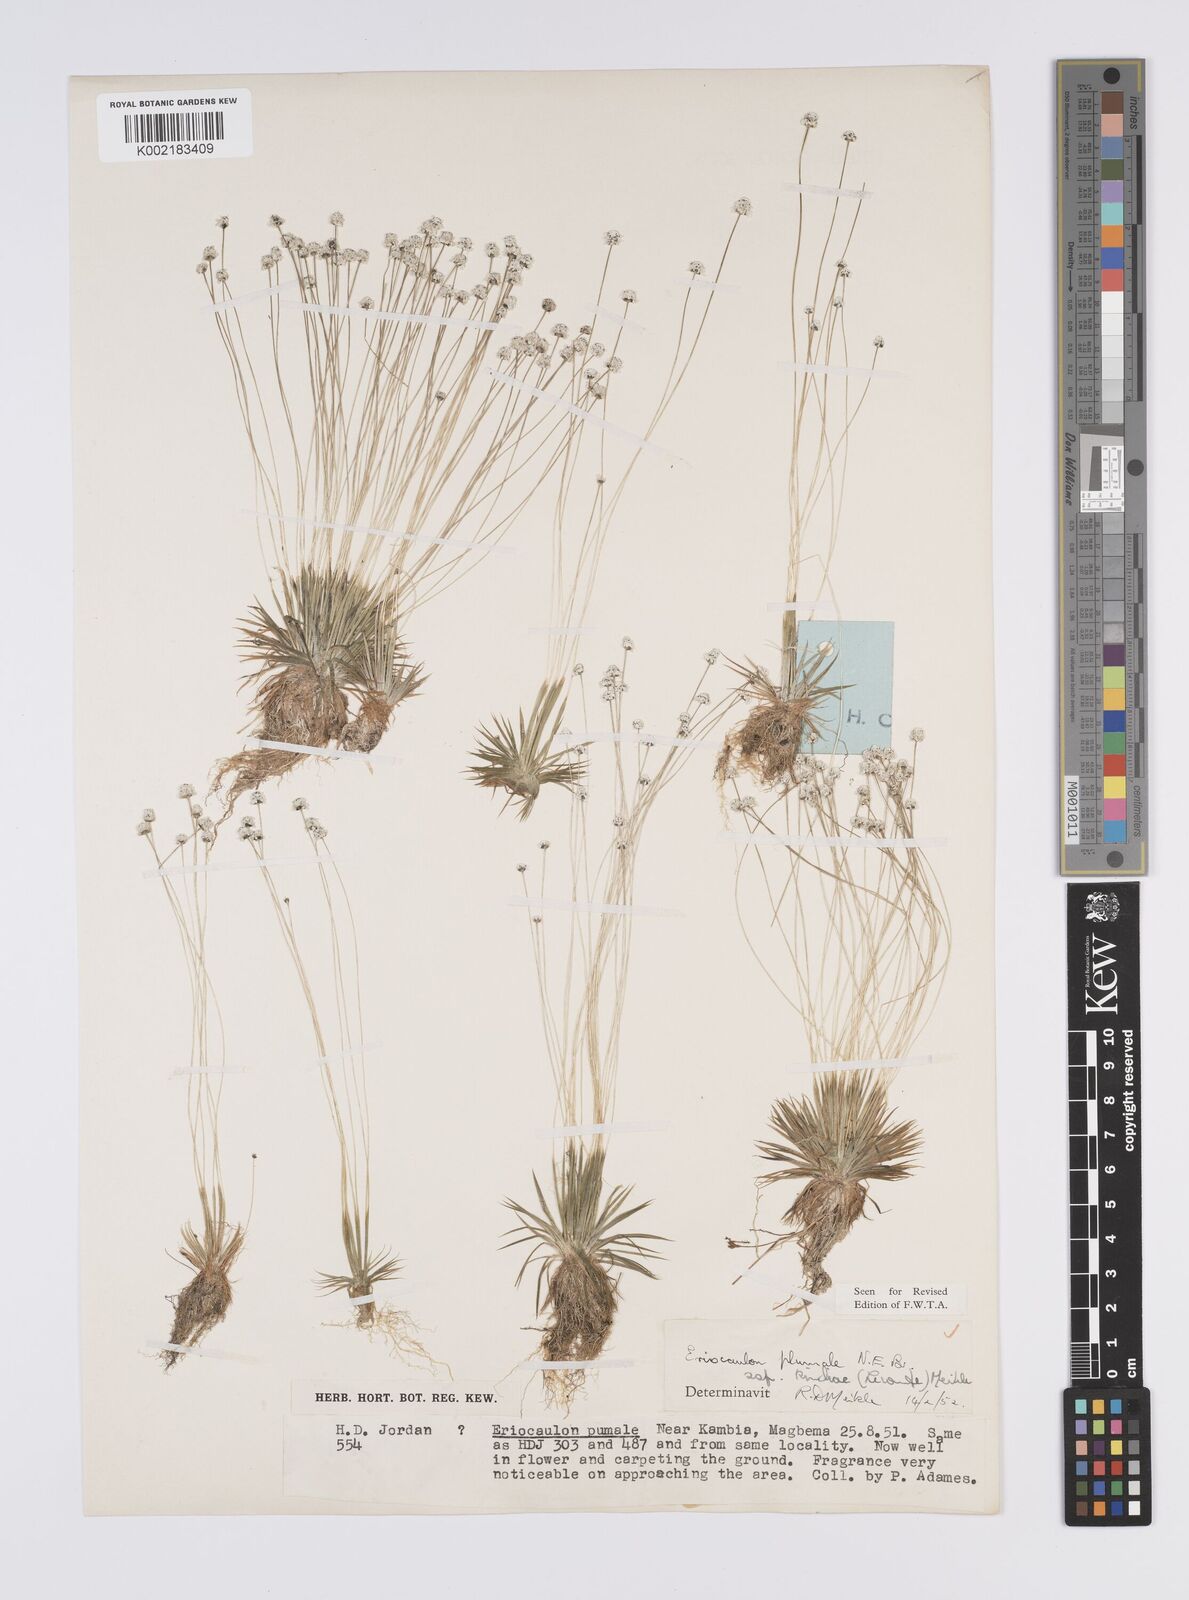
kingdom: Plantae
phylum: Tracheophyta
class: Liliopsida
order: Poales
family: Eriocaulaceae
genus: Eriocaulon
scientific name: Eriocaulon plumale
